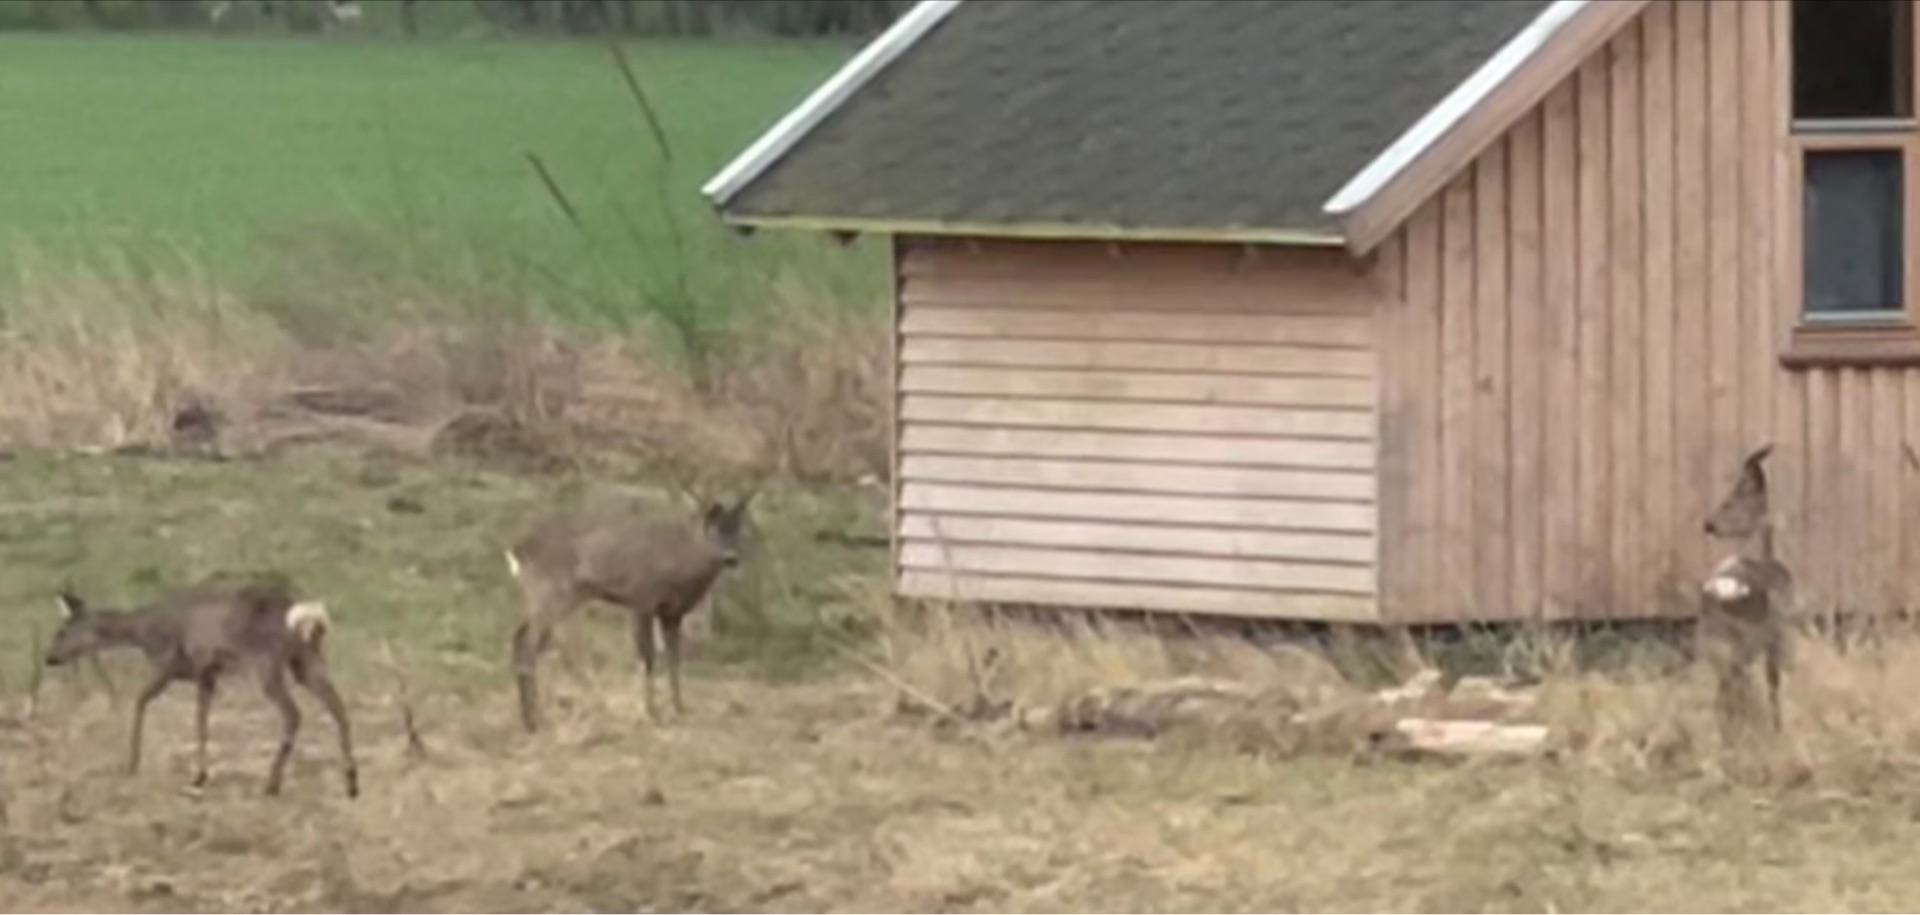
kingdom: Animalia
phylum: Chordata
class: Mammalia
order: Artiodactyla
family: Cervidae
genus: Capreolus
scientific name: Capreolus capreolus
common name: Rådyr
